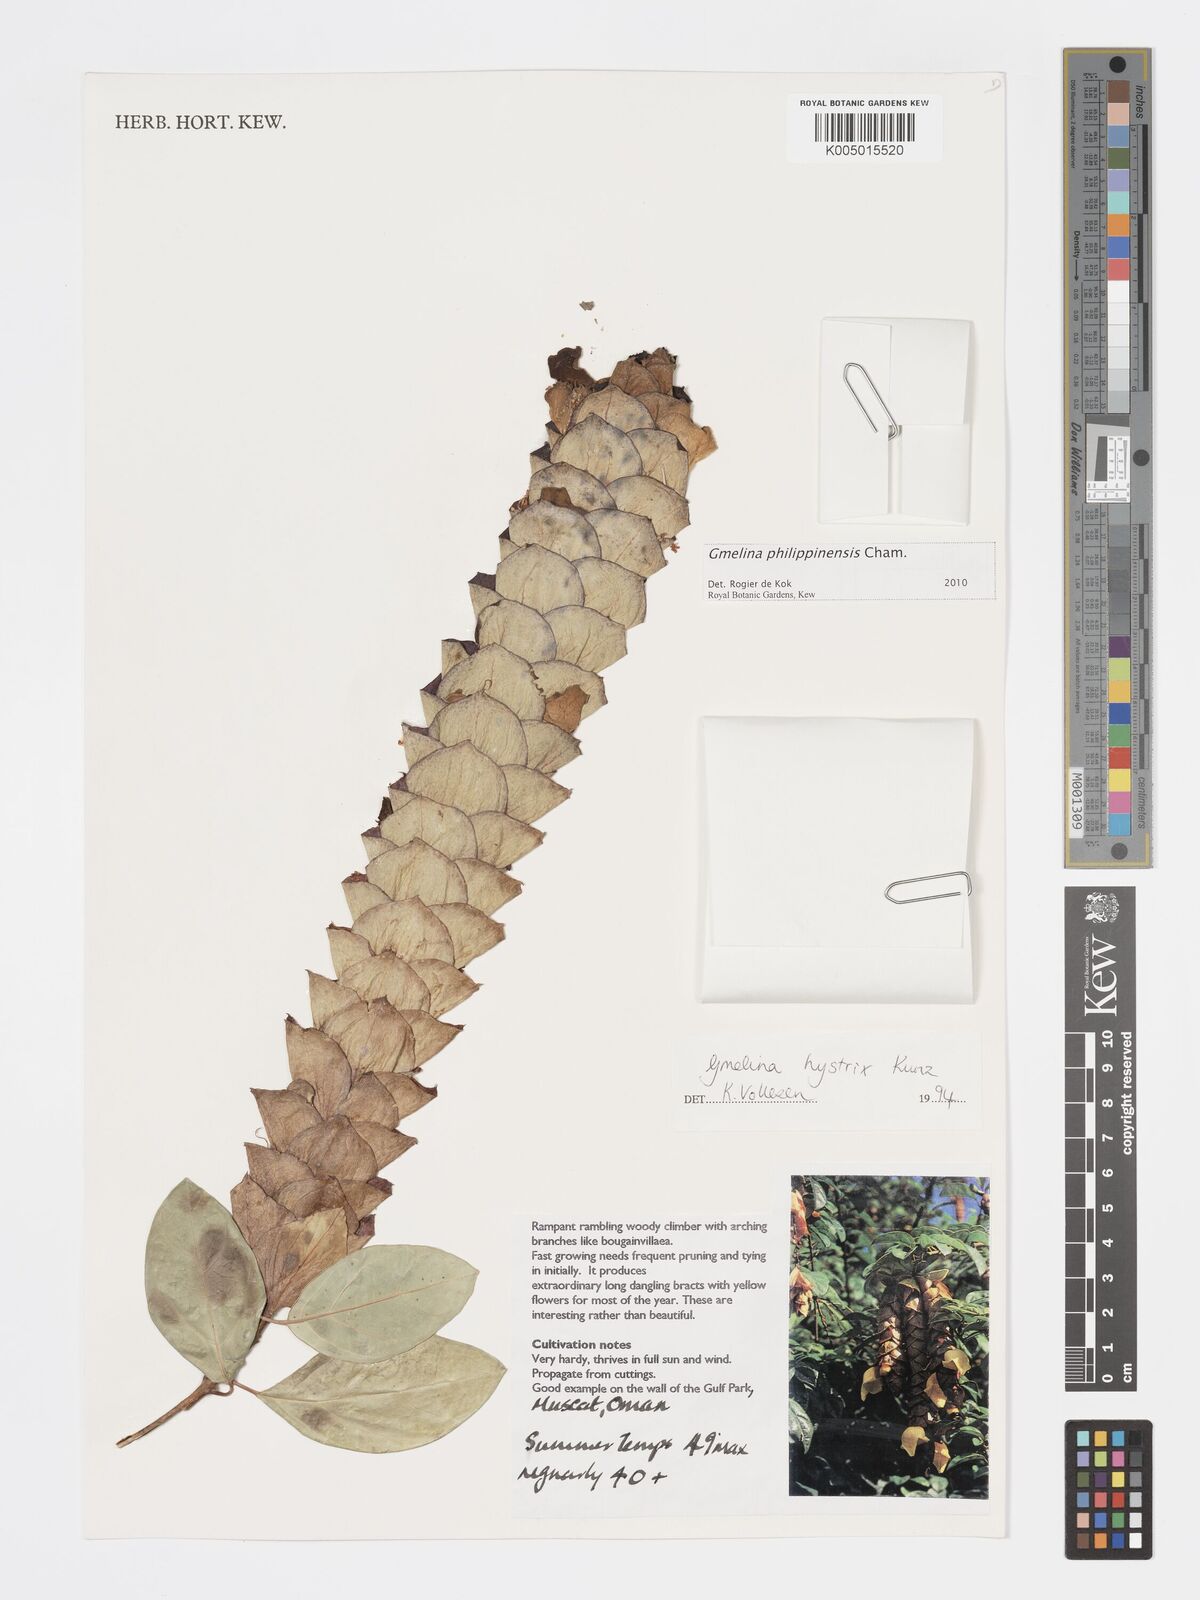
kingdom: Plantae
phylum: Tracheophyta
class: Magnoliopsida
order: Lamiales
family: Lamiaceae
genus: Gmelina
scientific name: Gmelina philippensis
